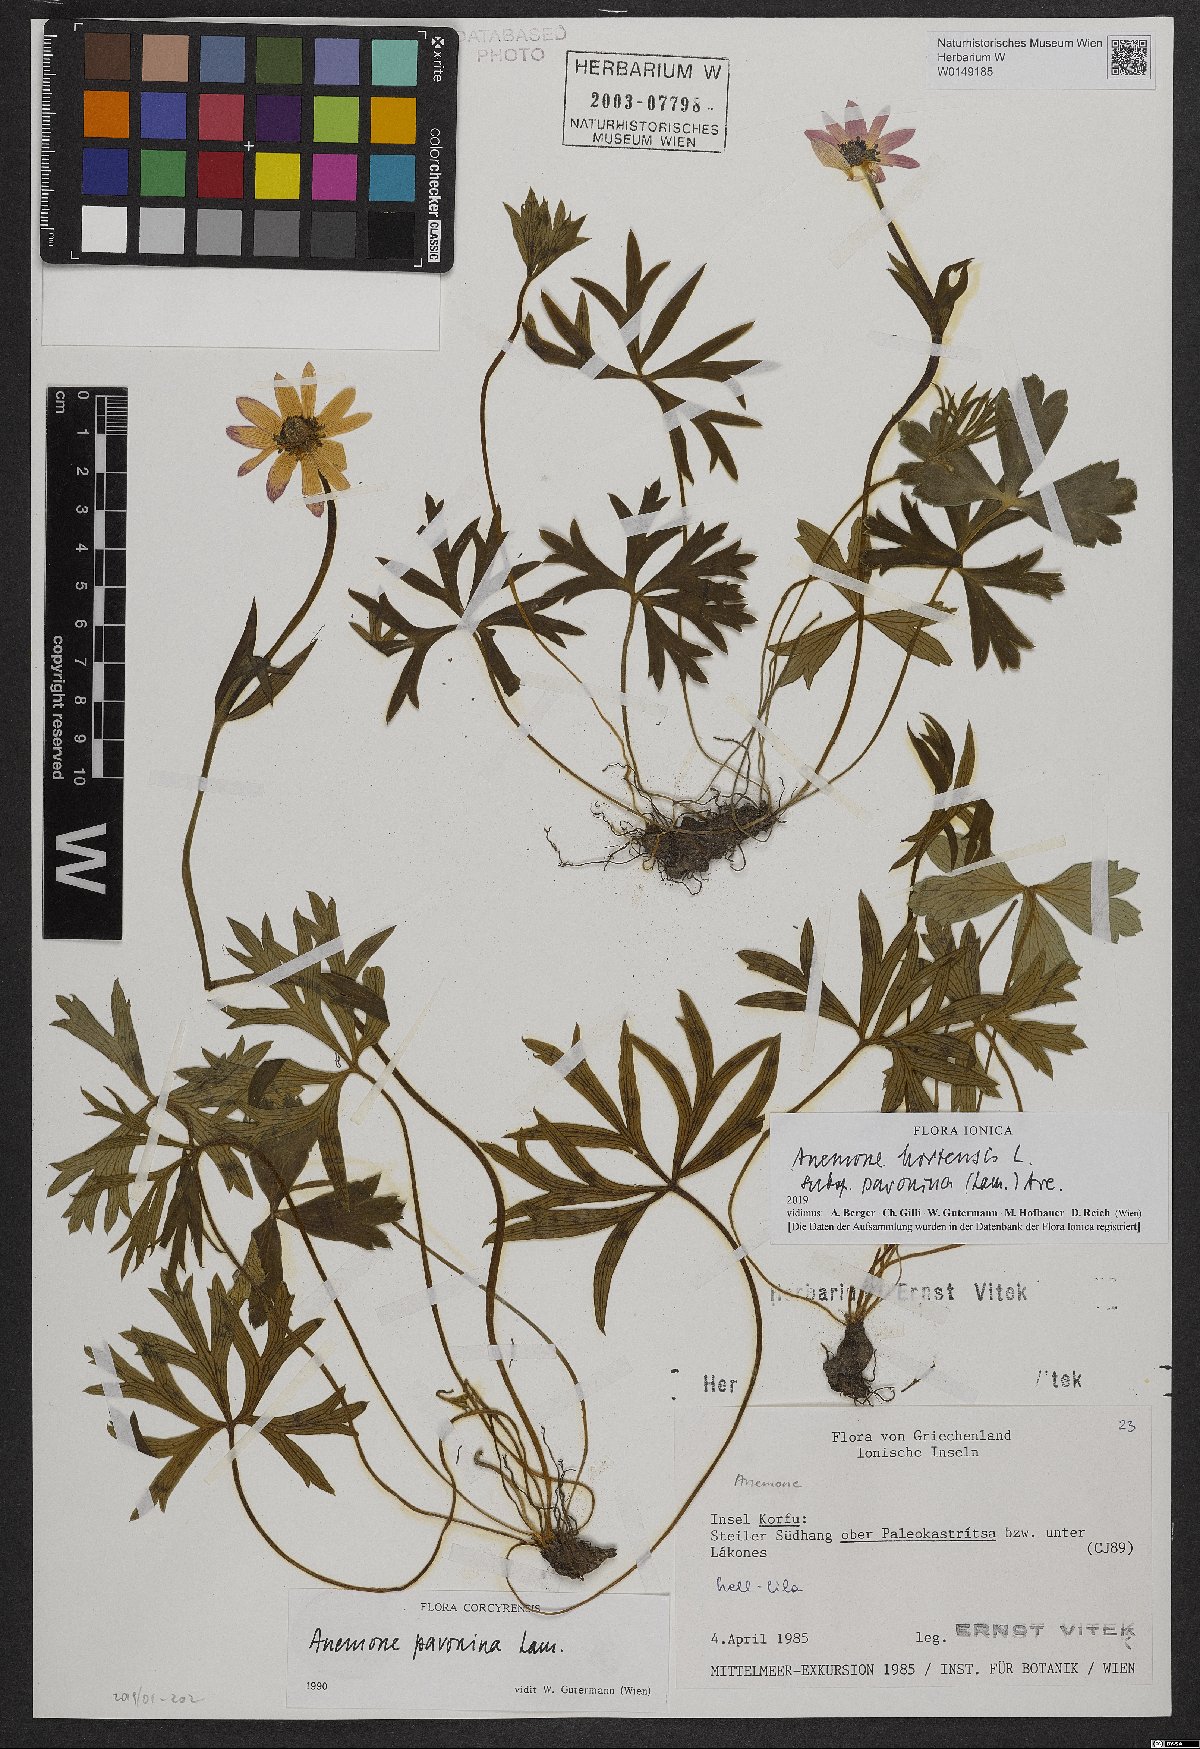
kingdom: Plantae
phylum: Tracheophyta
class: Magnoliopsida
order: Ranunculales
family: Ranunculaceae
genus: Anemone
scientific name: Anemone pavonina
